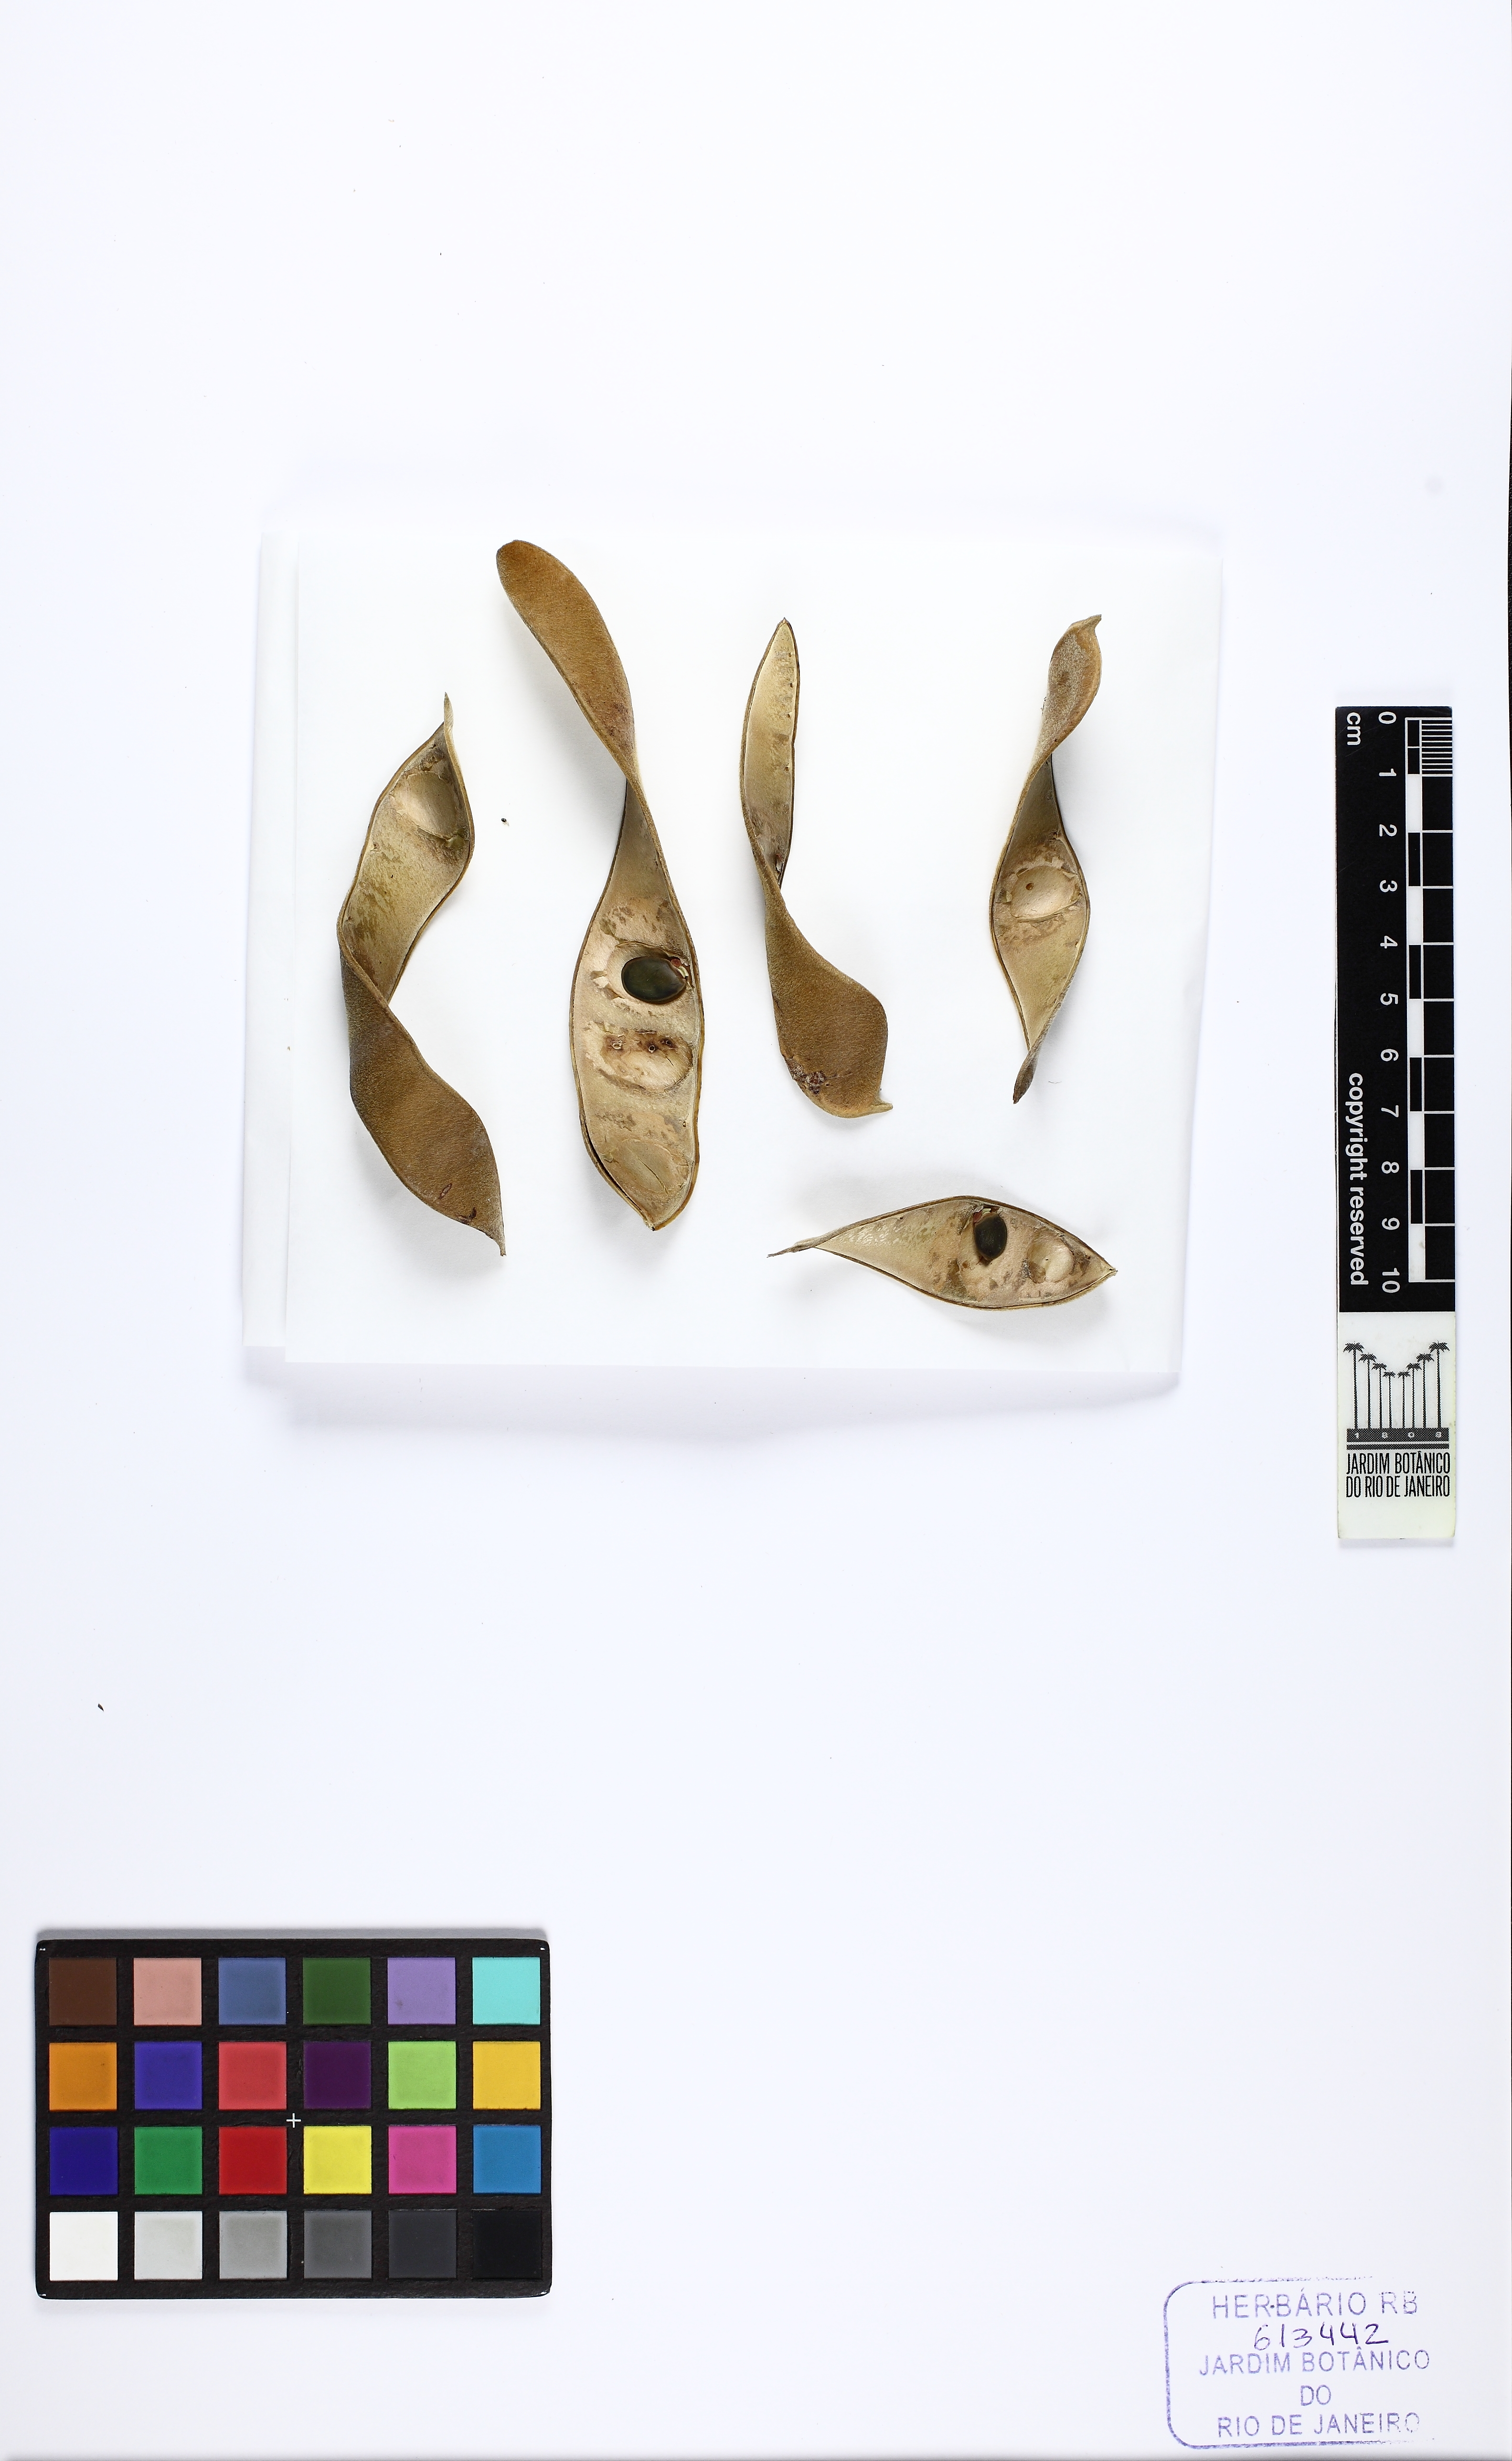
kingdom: Plantae
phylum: Tracheophyta
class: Magnoliopsida
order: Fabales
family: Fabaceae
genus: Cratylia
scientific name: Cratylia
